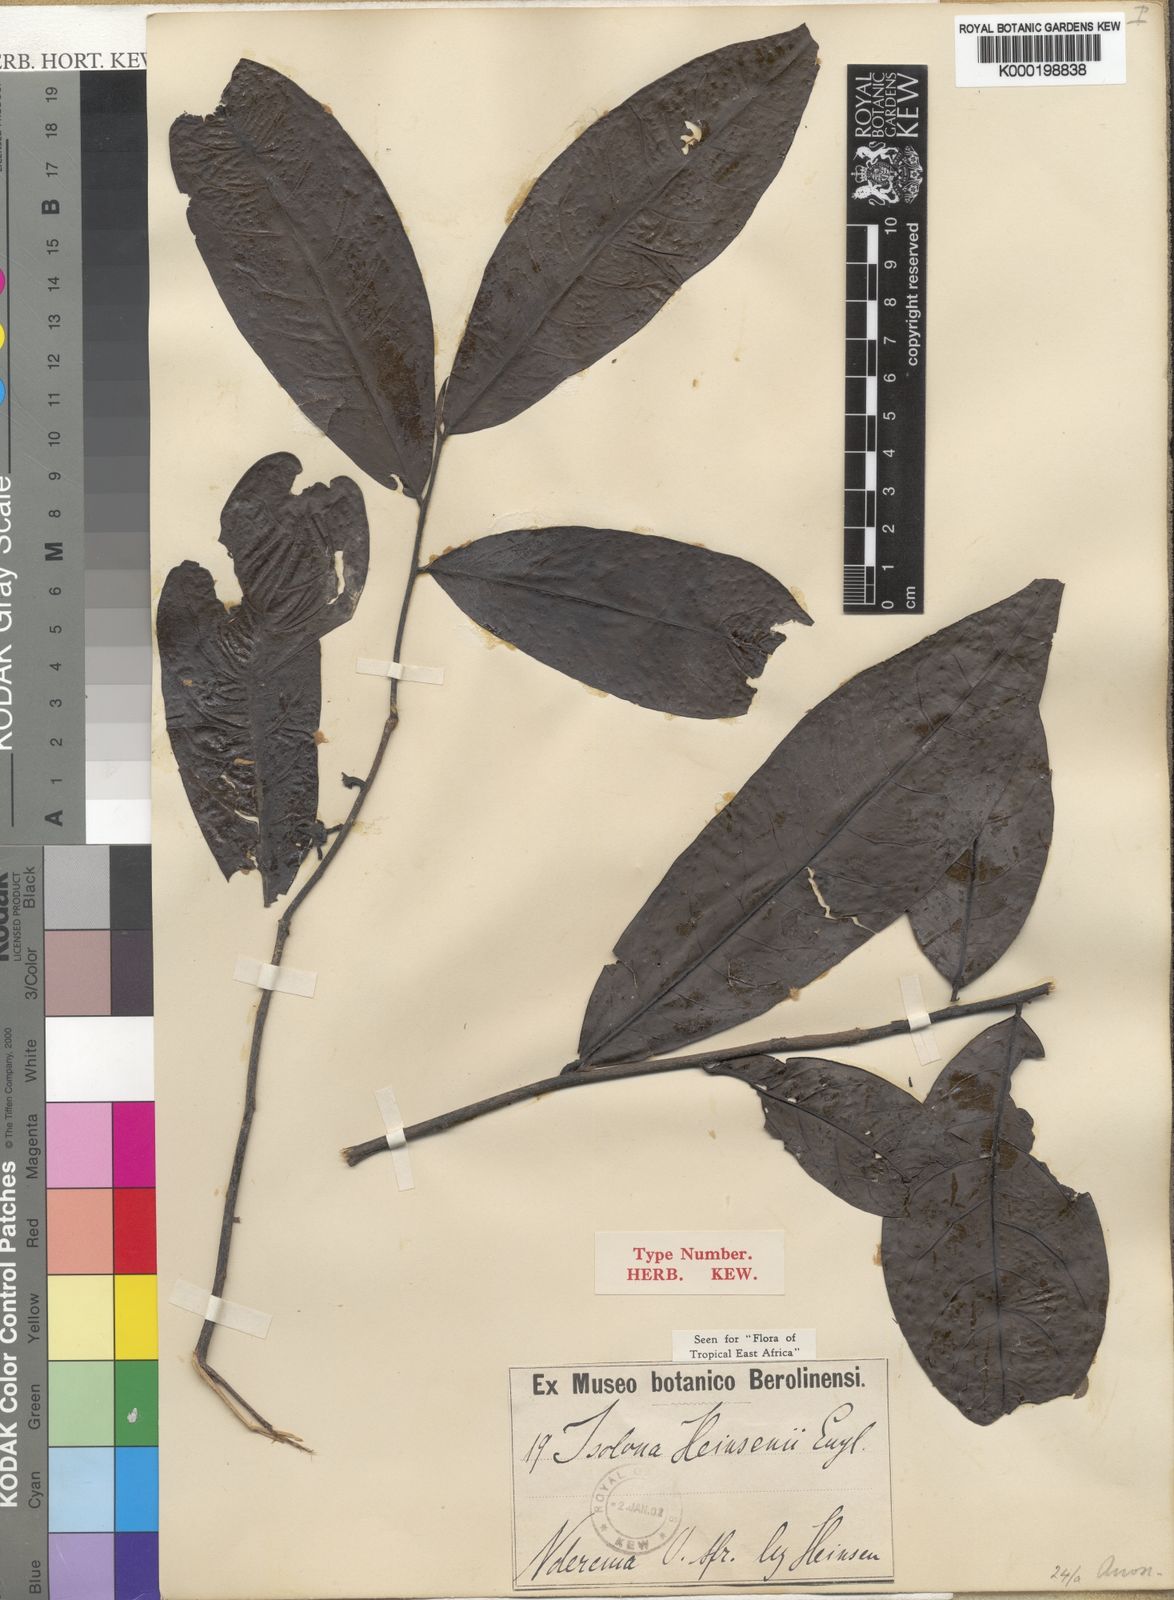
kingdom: Plantae
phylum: Tracheophyta
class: Magnoliopsida
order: Magnoliales
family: Annonaceae
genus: Isolona
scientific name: Isolona heinsenii
